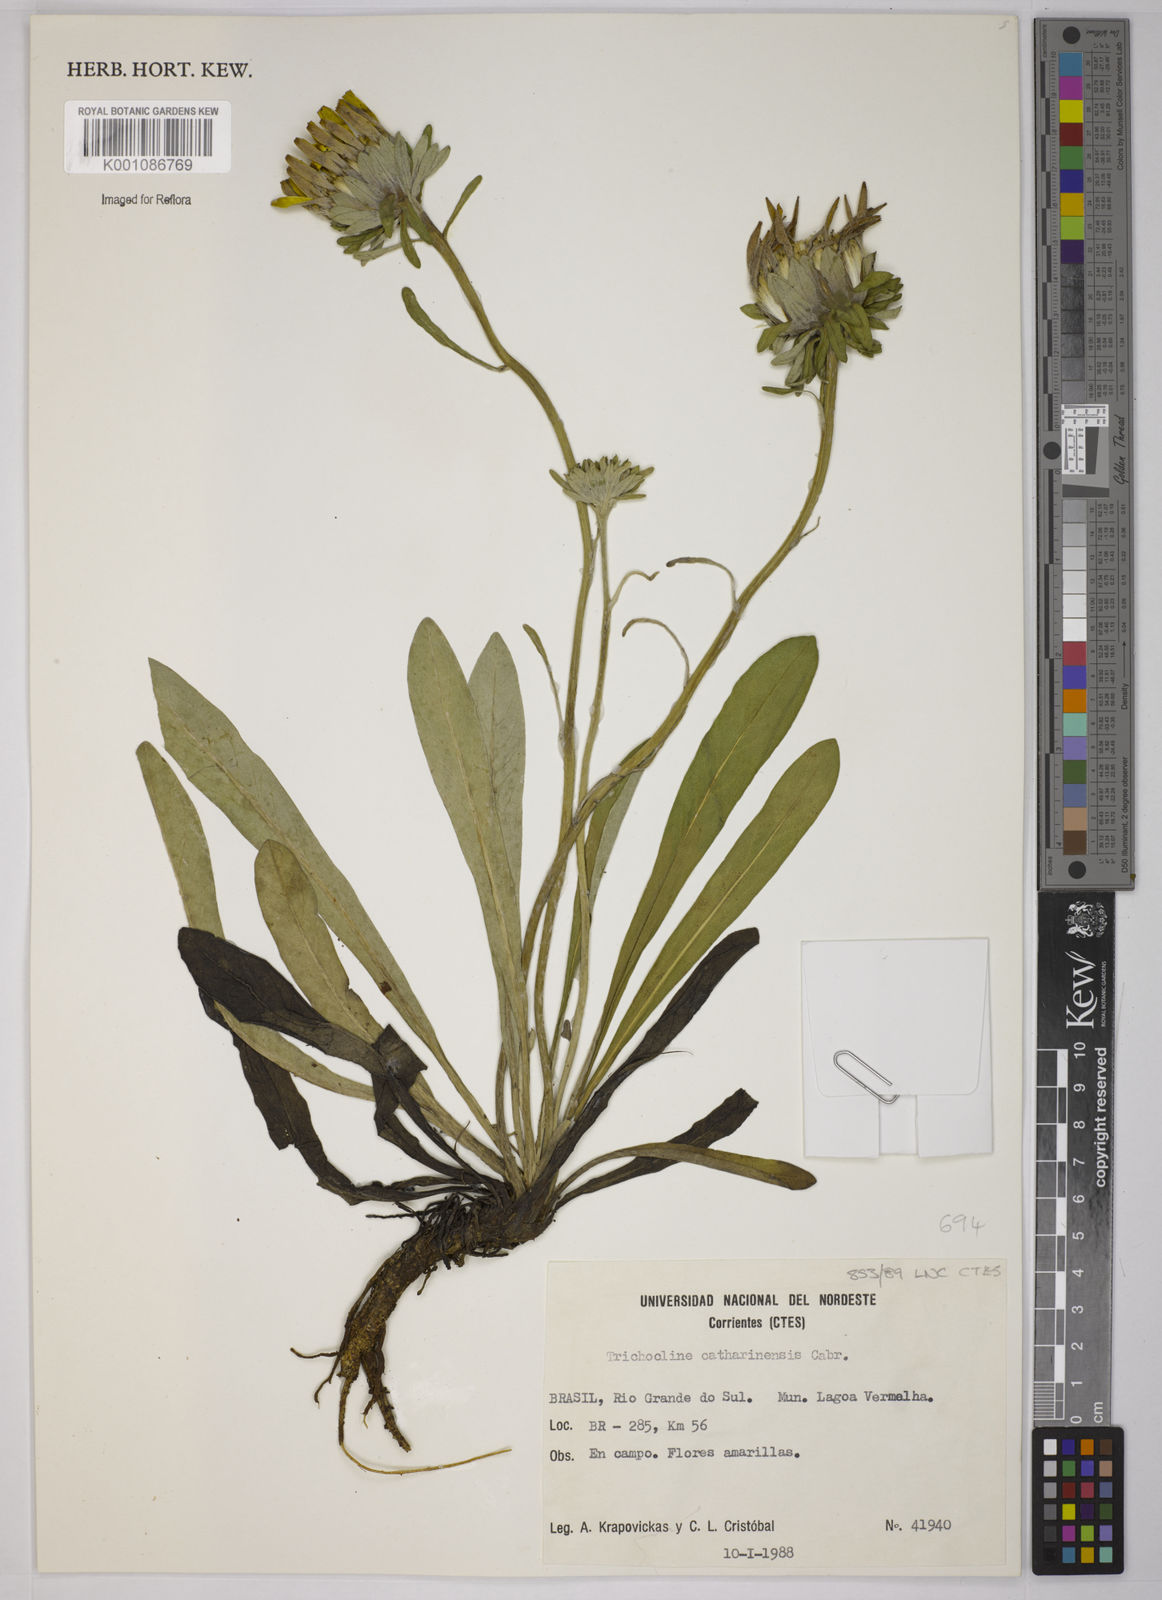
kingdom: Plantae
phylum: Tracheophyta
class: Magnoliopsida
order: Asterales
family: Asteraceae
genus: Trichocline
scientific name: Trichocline catharinensis
